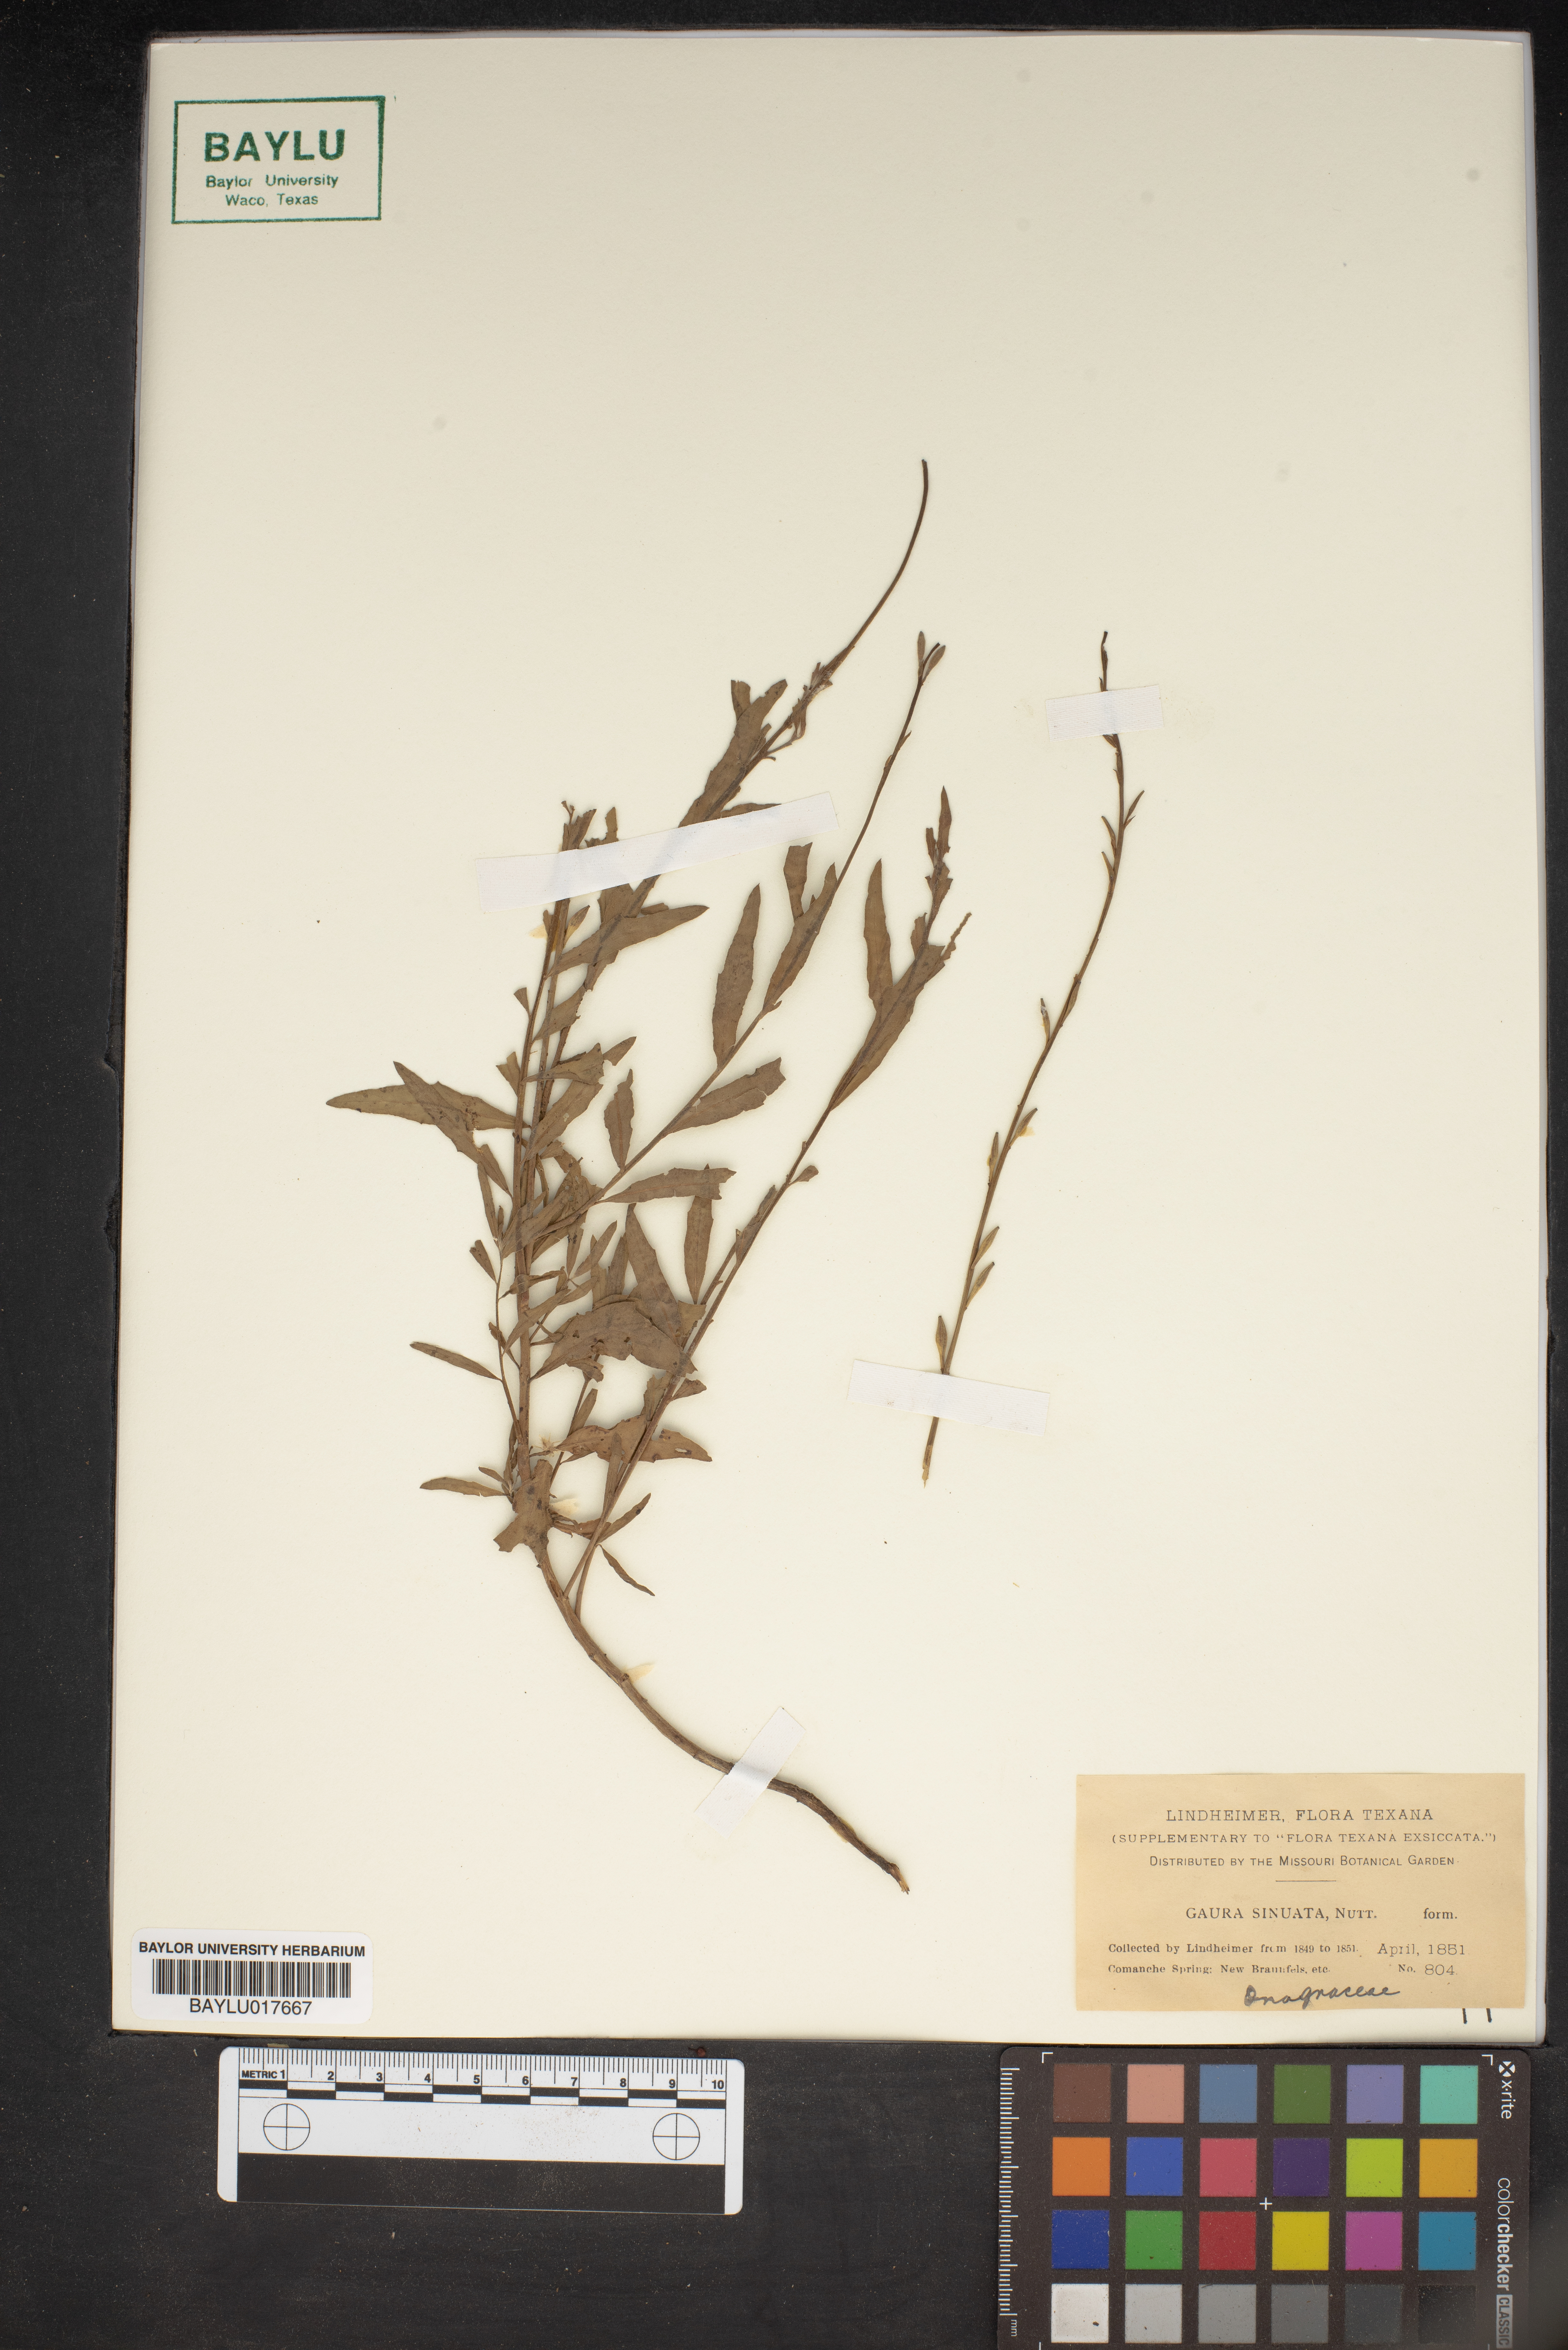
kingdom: Plantae
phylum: Tracheophyta
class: Magnoliopsida
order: Myrtales
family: Onagraceae
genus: Oenothera
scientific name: Oenothera sinuosa
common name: Wavyleaf beeblossom
